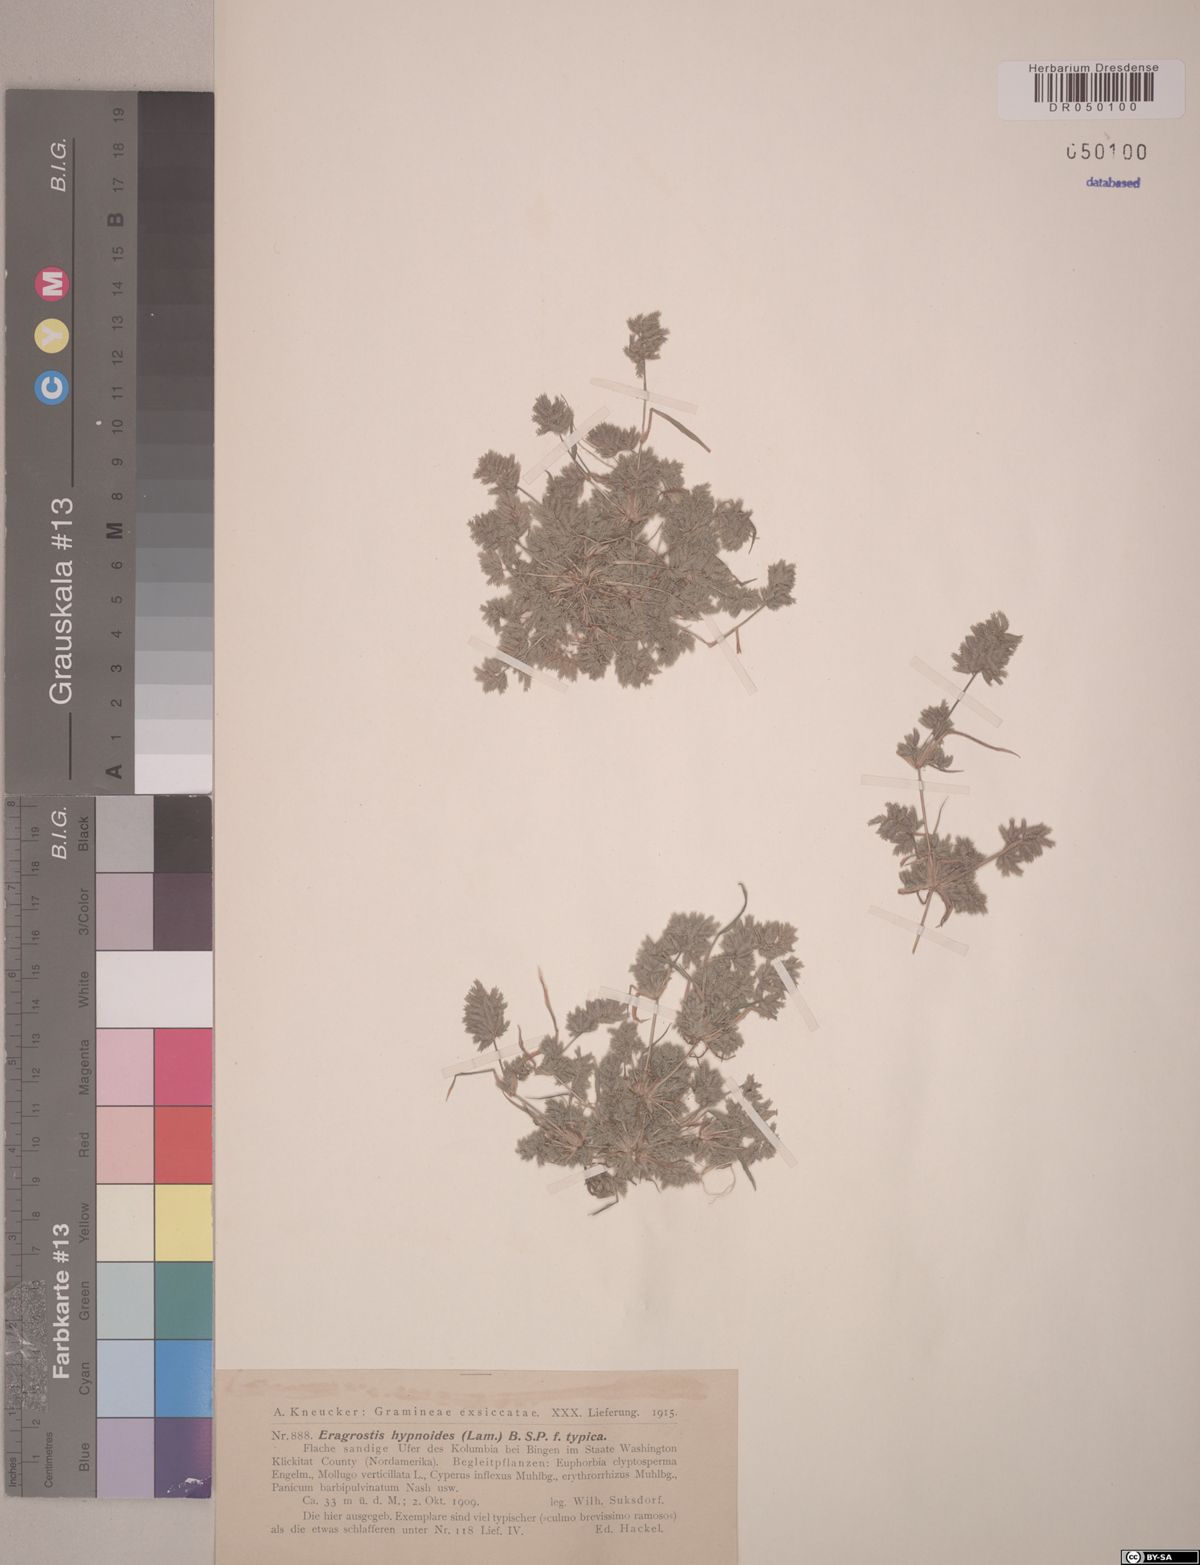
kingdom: Plantae
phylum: Tracheophyta
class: Liliopsida
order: Poales
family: Poaceae
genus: Eragrostis
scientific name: Eragrostis hypnoides
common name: Creeping love grass
